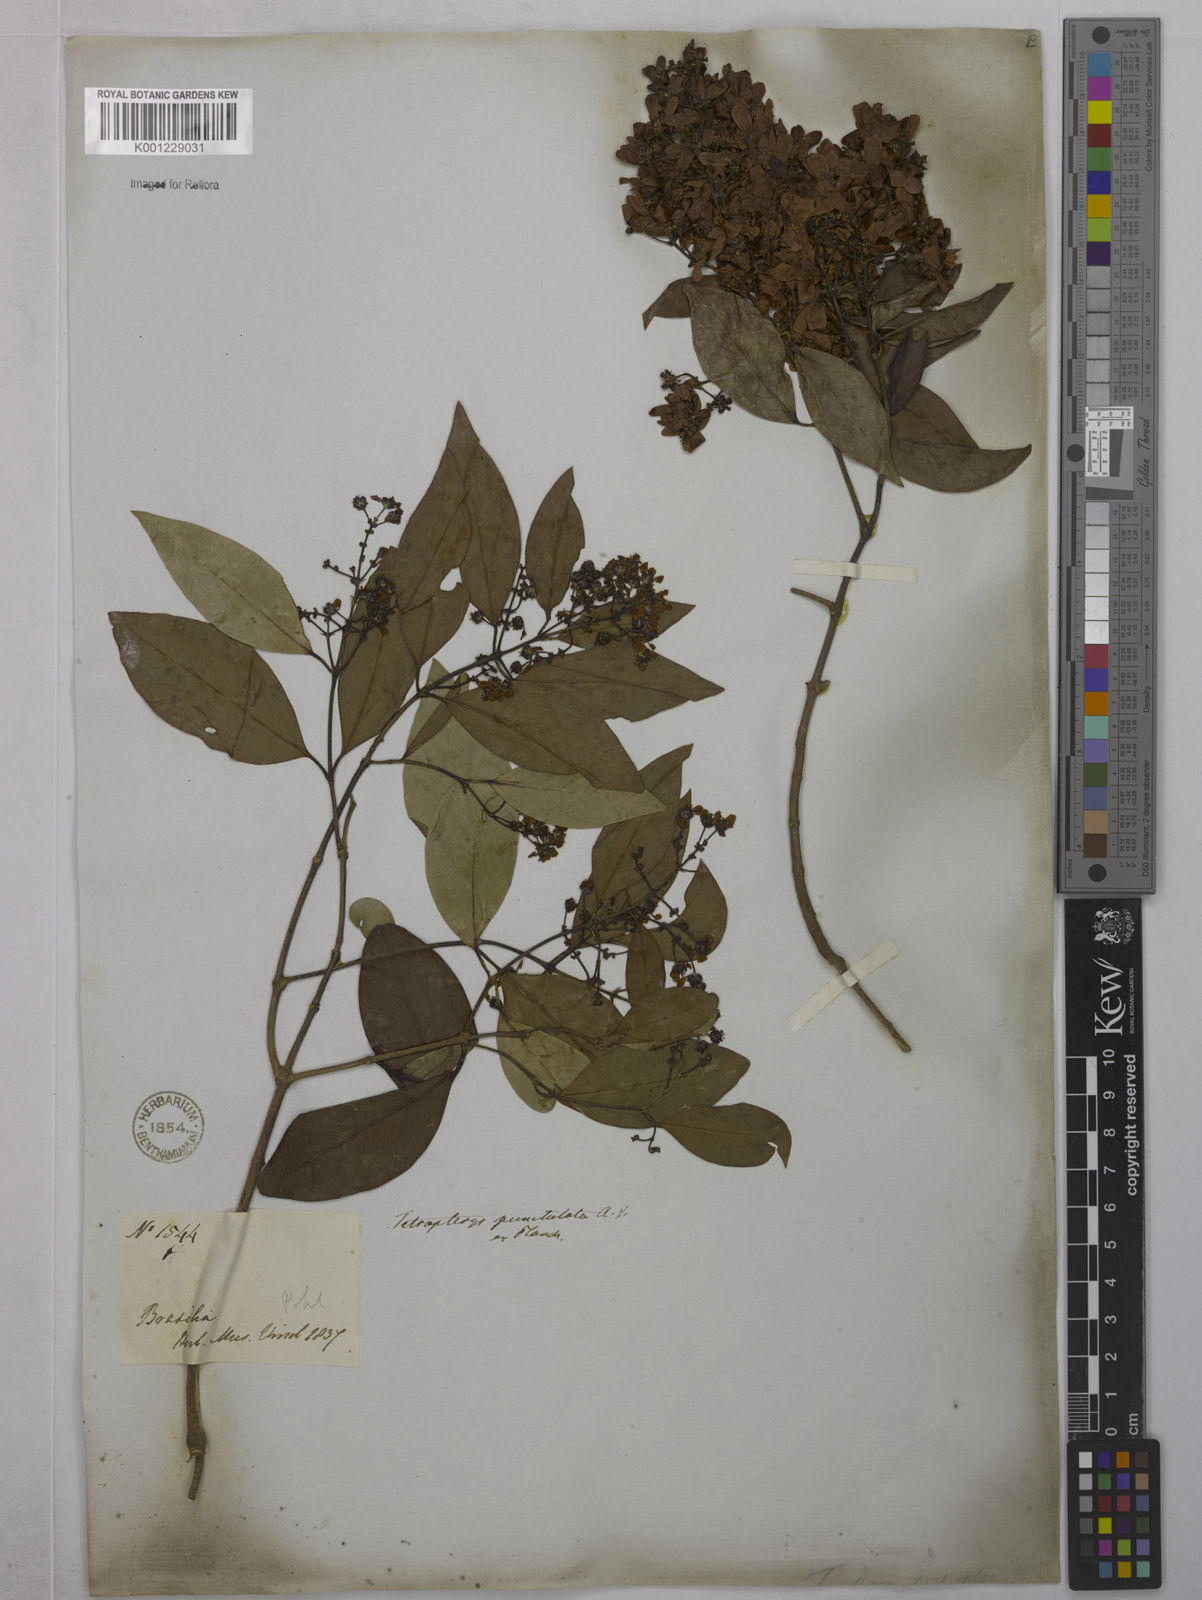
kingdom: Plantae
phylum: Tracheophyta
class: Magnoliopsida
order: Malpighiales
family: Malpighiaceae
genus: Niedenzuella
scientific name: Niedenzuella acutifolia
